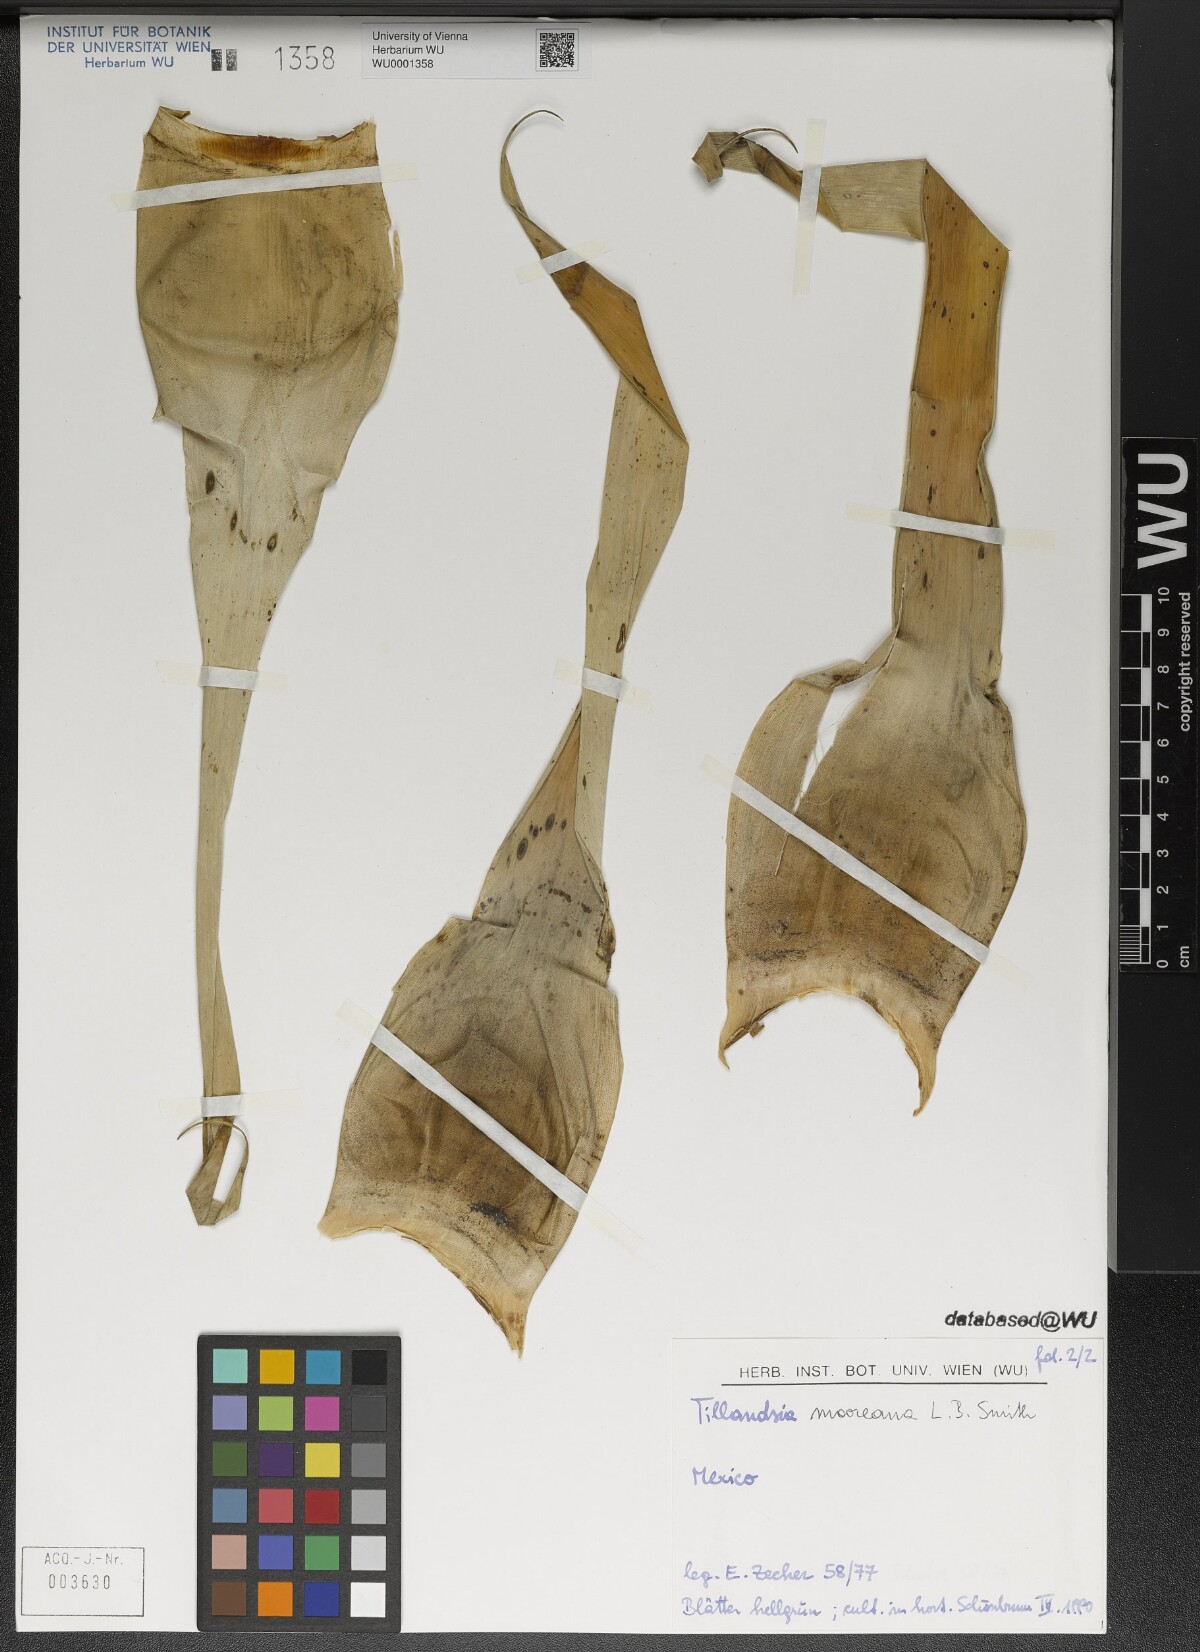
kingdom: Plantae
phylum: Tracheophyta
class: Liliopsida
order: Poales
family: Bromeliaceae
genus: Tillandsia
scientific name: Tillandsia mooreana
